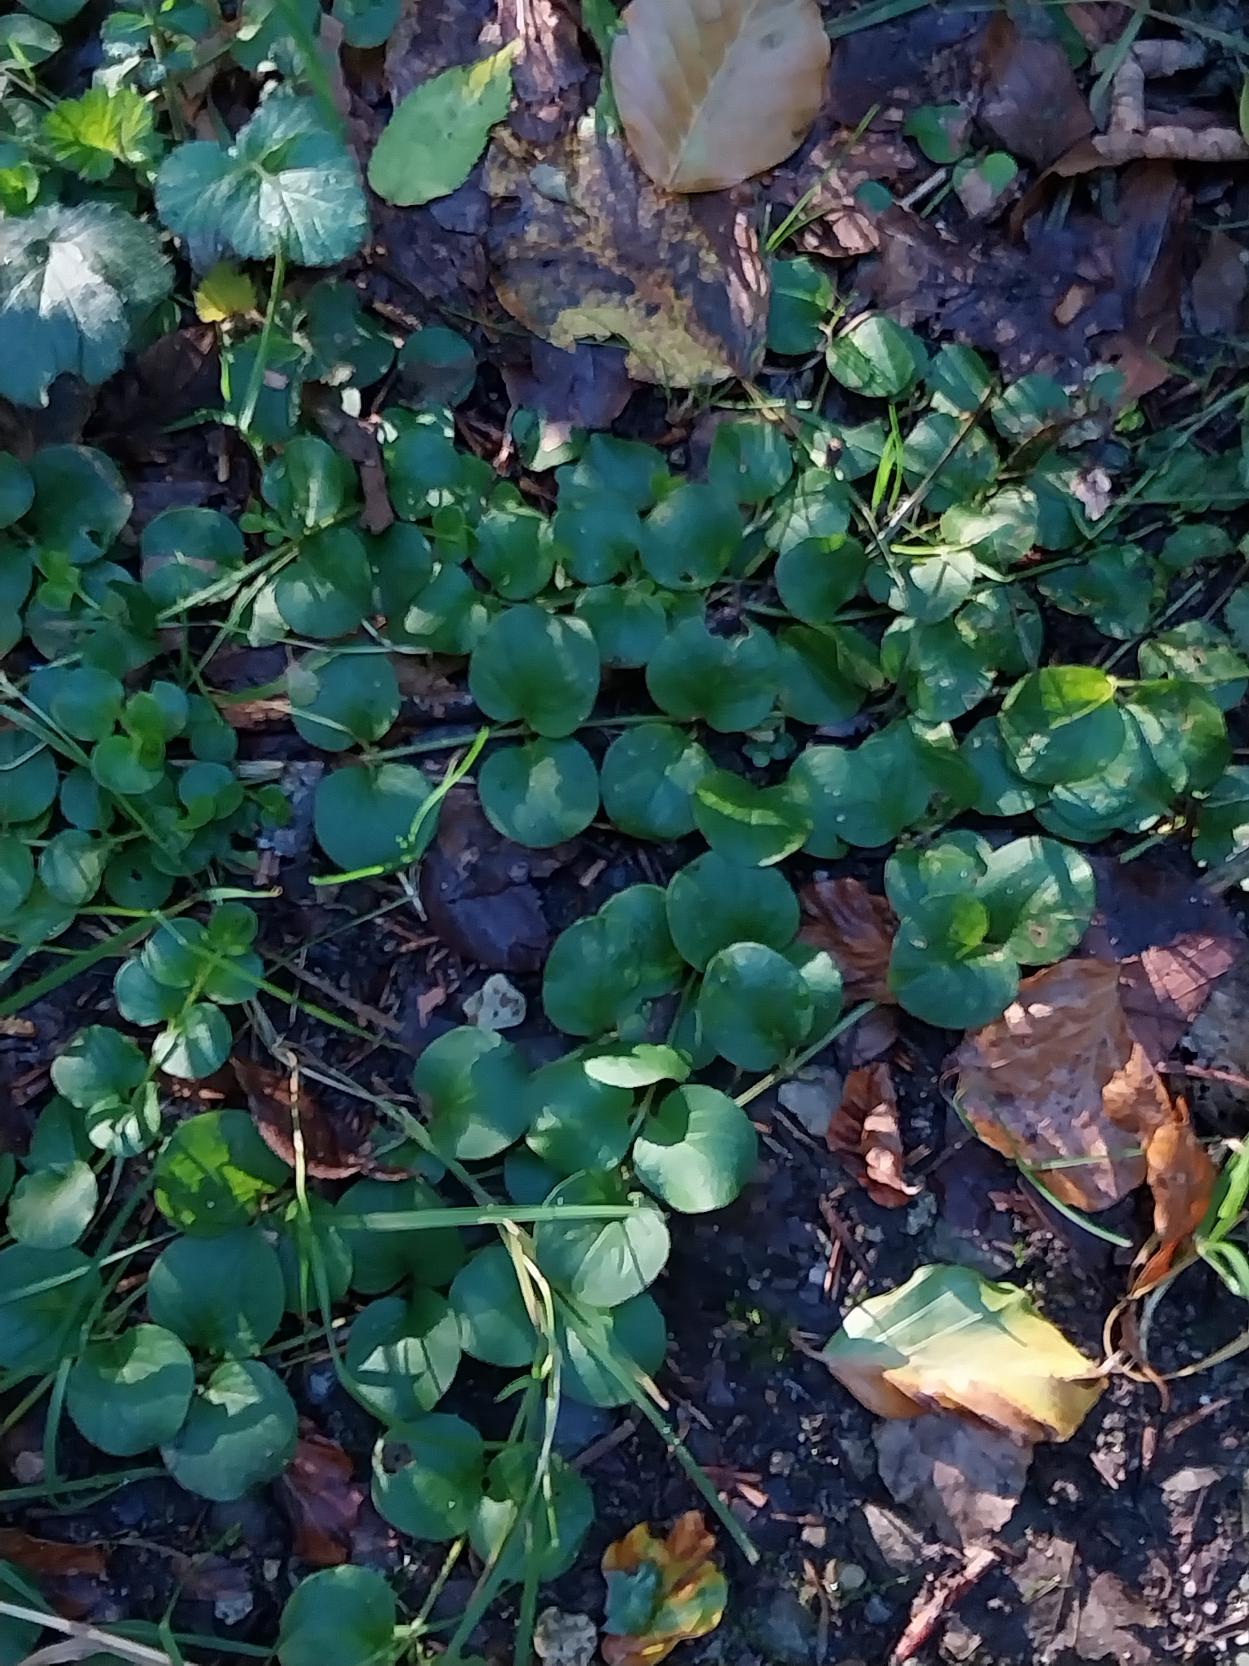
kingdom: Plantae
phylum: Tracheophyta
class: Magnoliopsida
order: Ericales
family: Primulaceae
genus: Lysimachia
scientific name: Lysimachia nummularia
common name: Pengebladet fredløs
